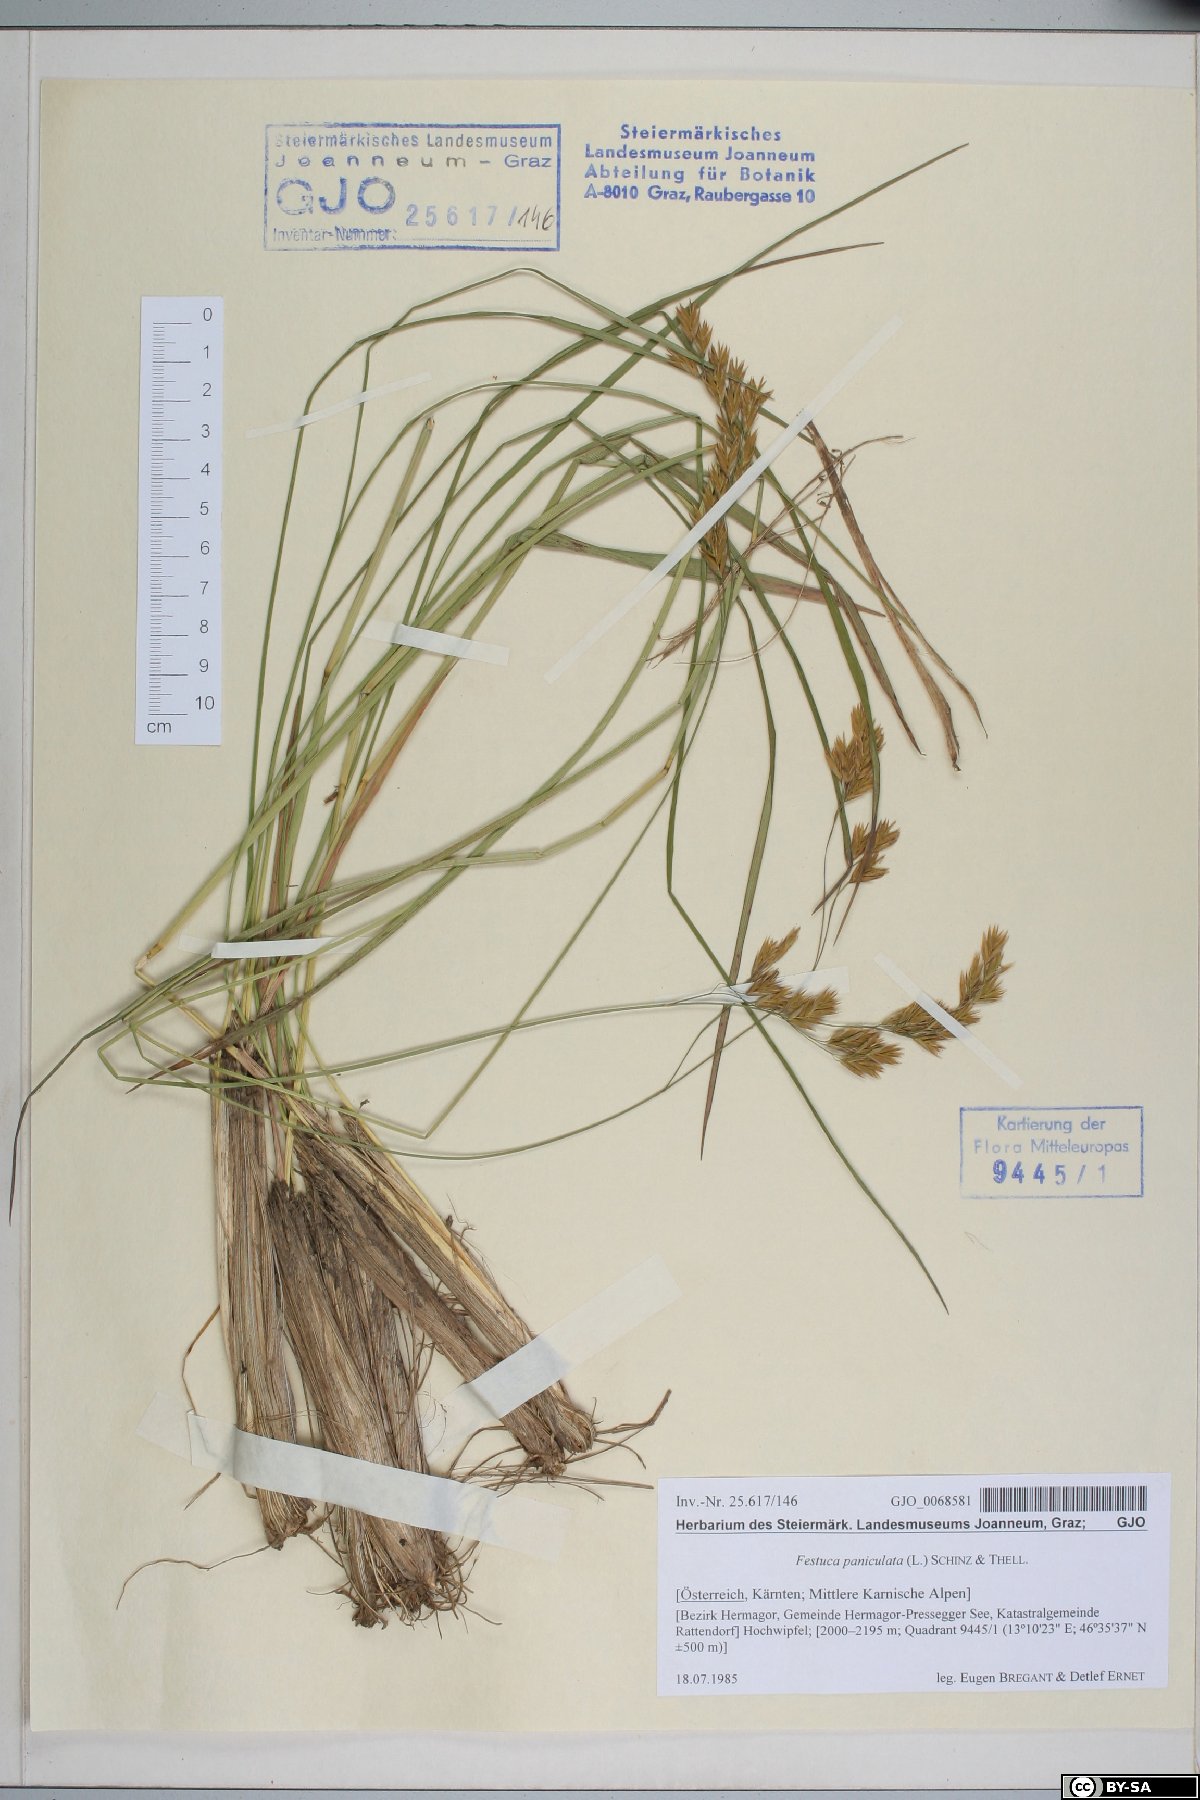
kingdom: Plantae
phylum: Tracheophyta
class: Liliopsida
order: Poales
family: Poaceae
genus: Patzkea
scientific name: Patzkea paniculata
